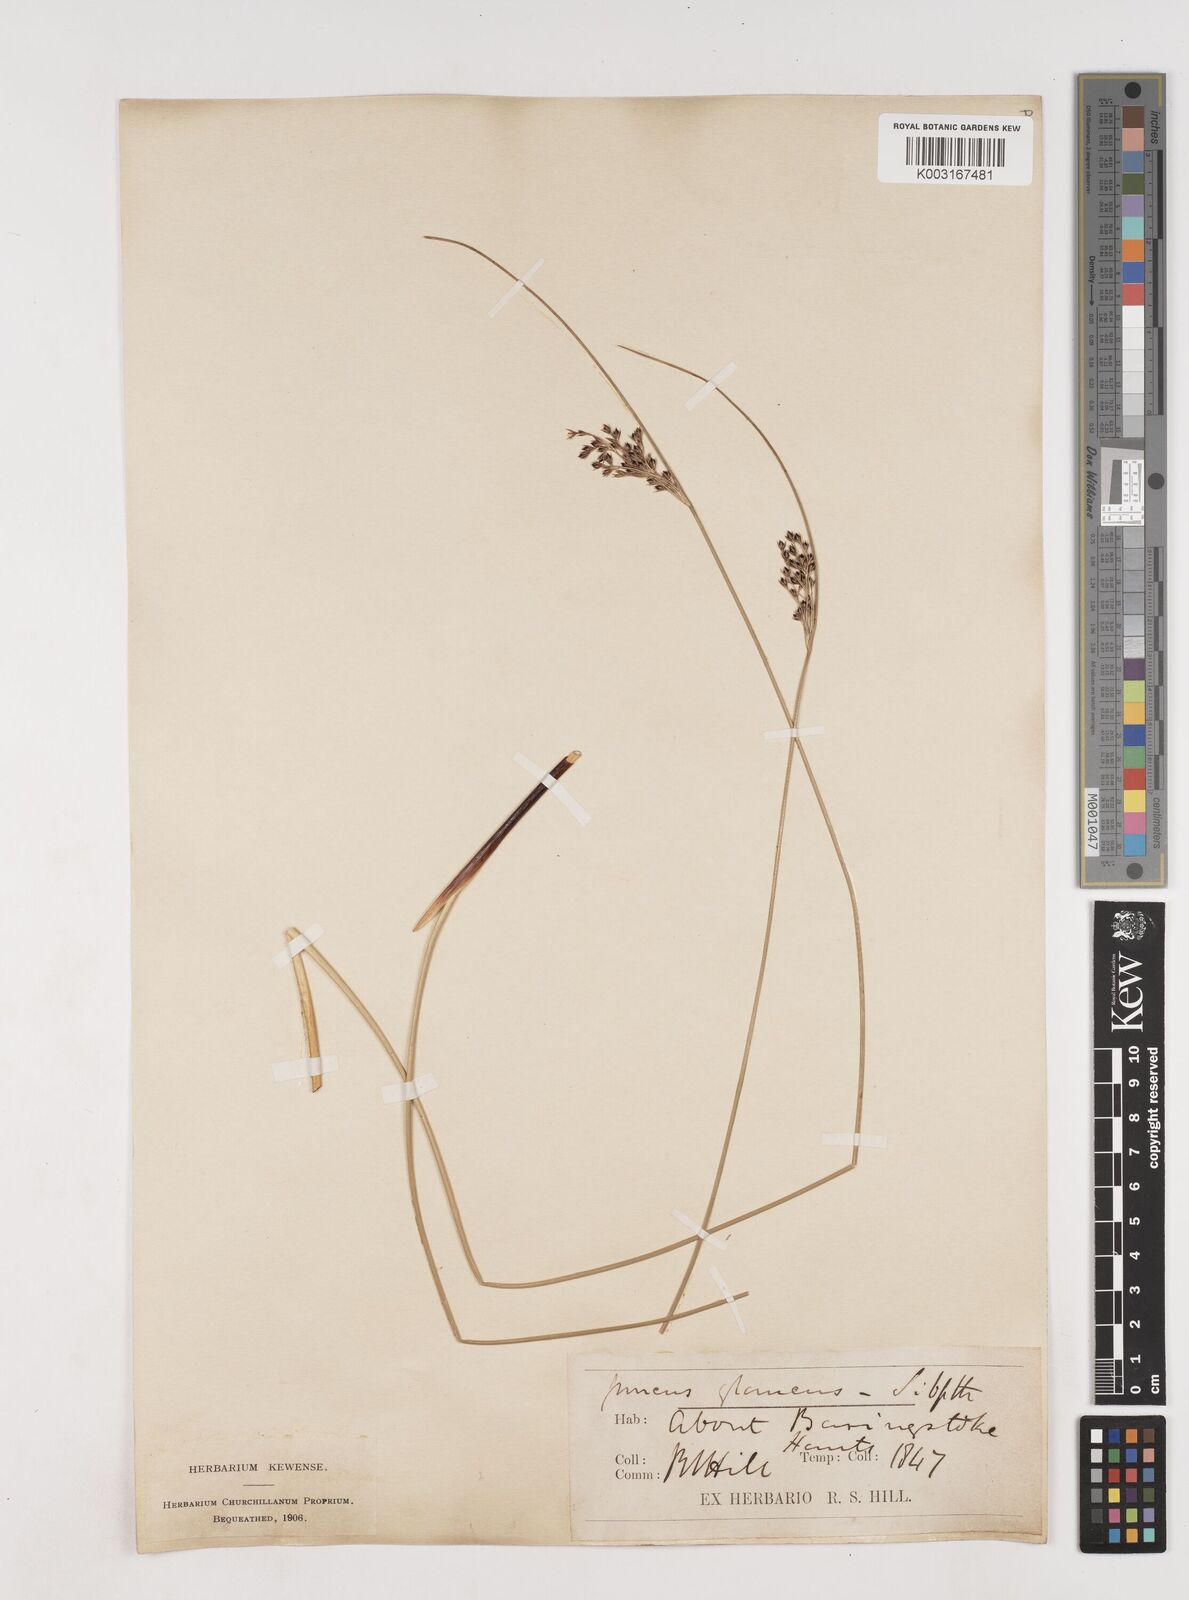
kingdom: Plantae
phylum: Tracheophyta
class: Liliopsida
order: Poales
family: Juncaceae
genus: Juncus
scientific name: Juncus inflexus
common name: Hard rush
